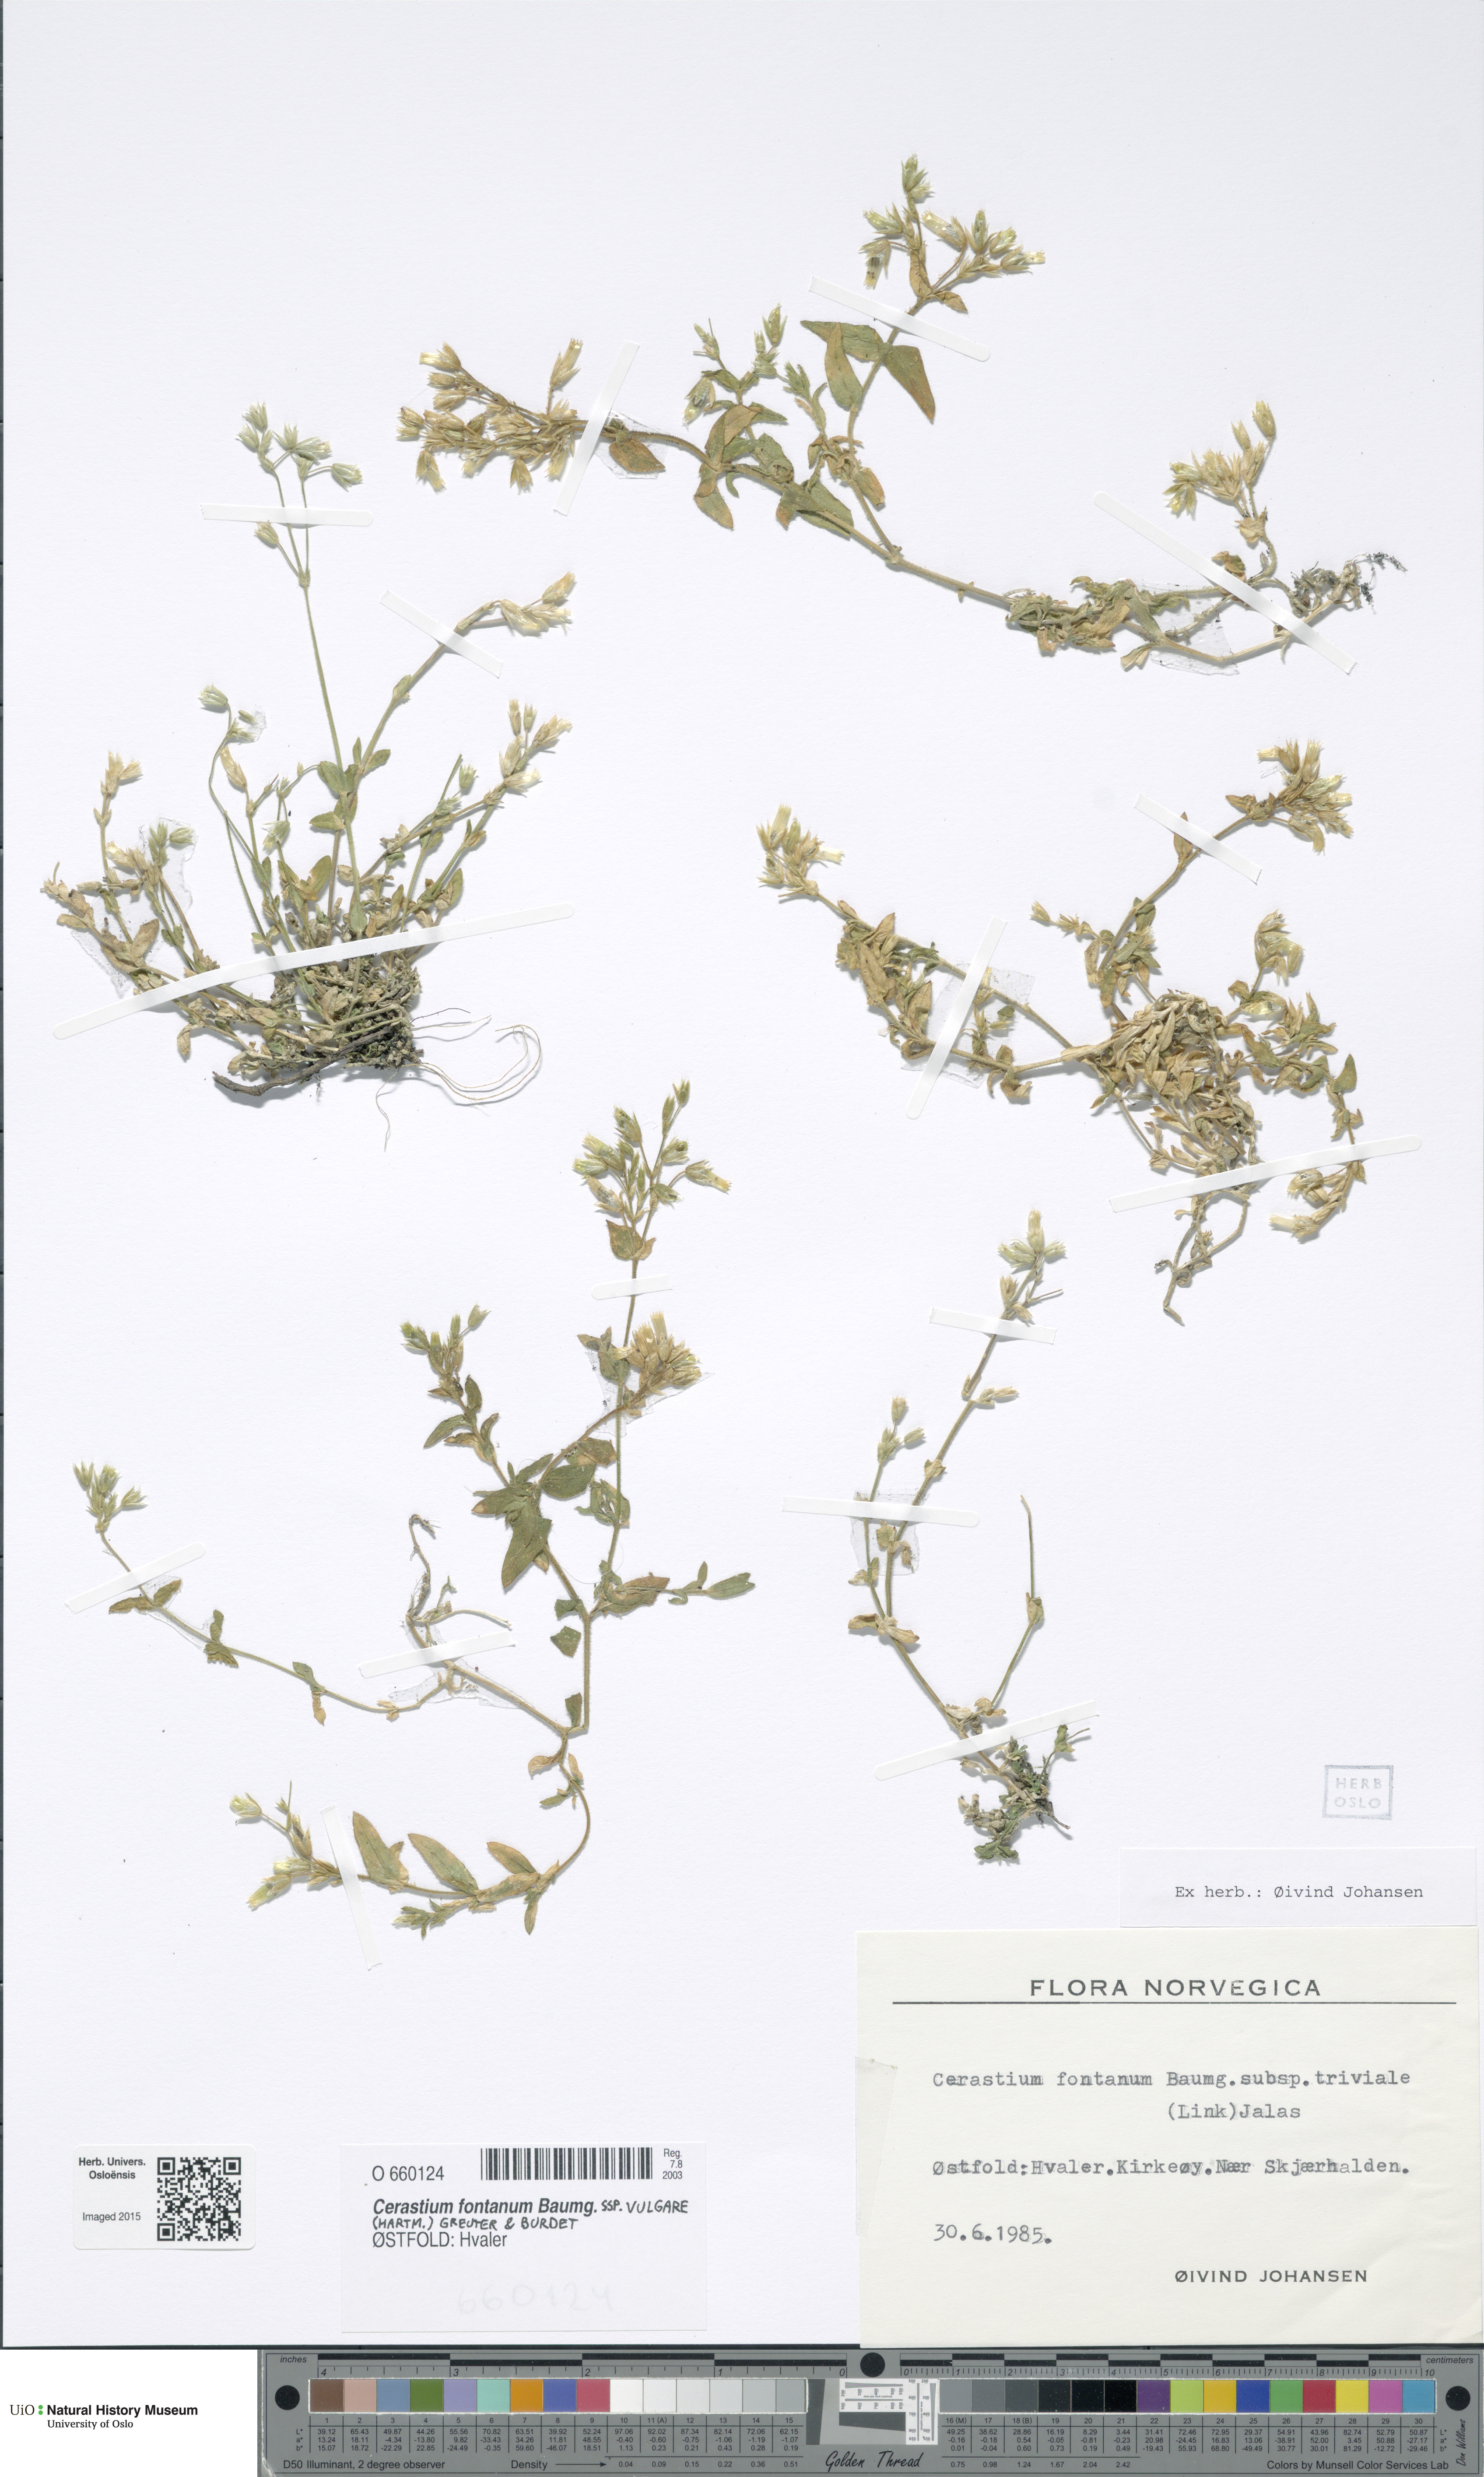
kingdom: Plantae
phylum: Tracheophyta
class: Magnoliopsida
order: Caryophyllales
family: Caryophyllaceae
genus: Cerastium
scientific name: Cerastium holosteoides
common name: Big chickweed
